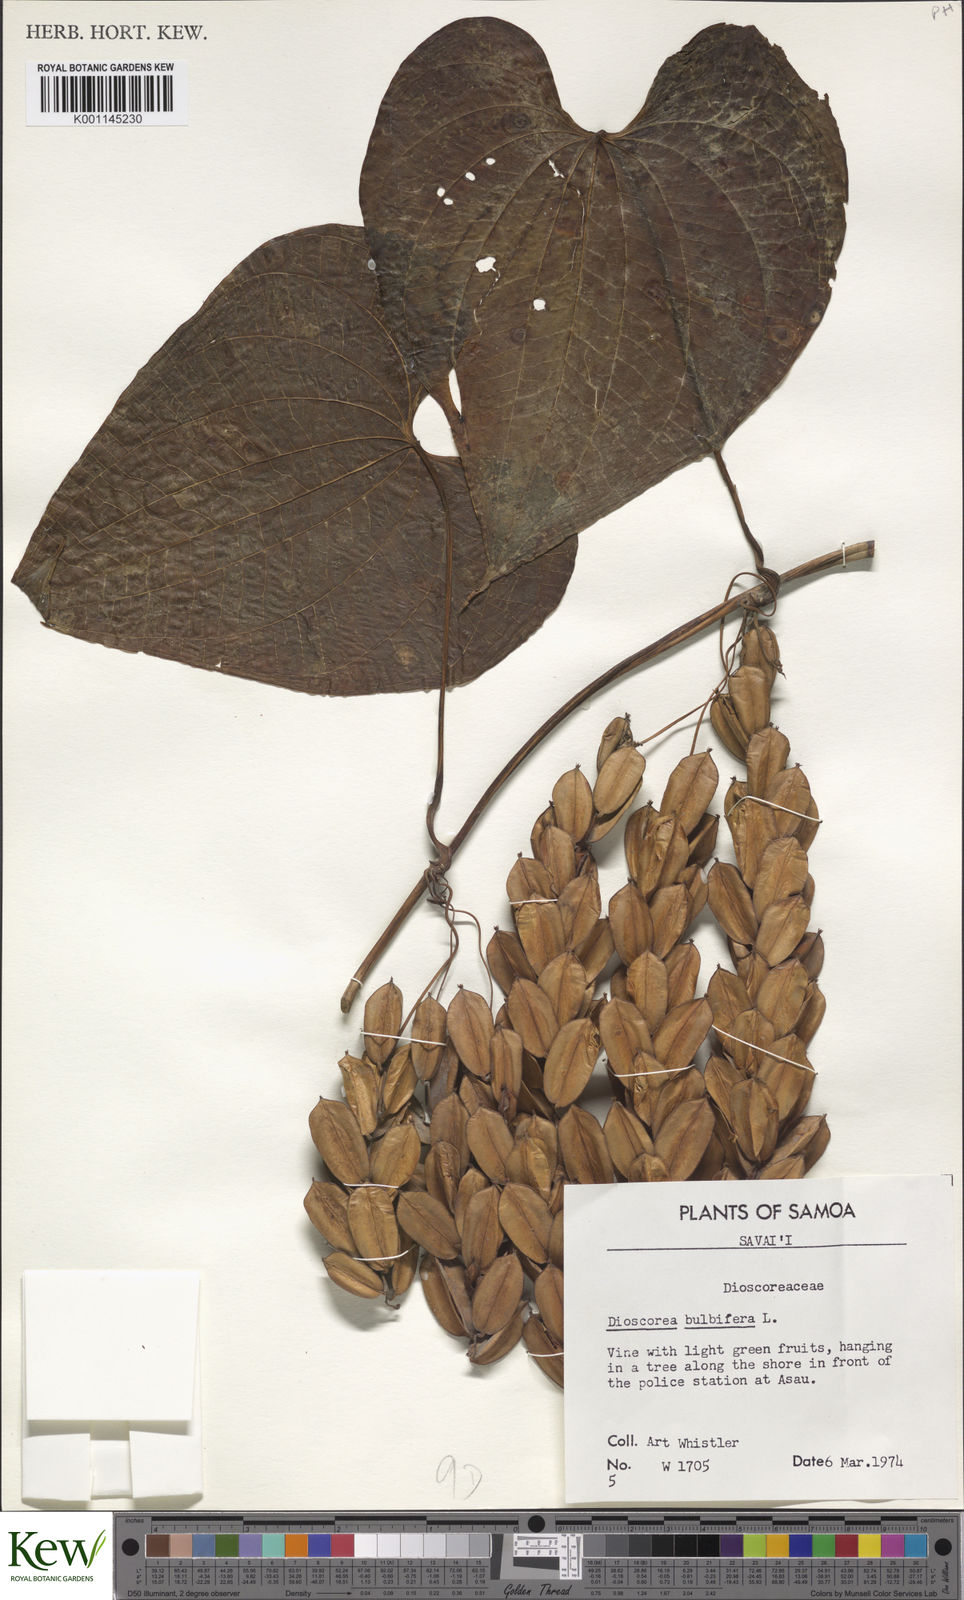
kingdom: Plantae
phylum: Tracheophyta
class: Liliopsida
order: Dioscoreales
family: Dioscoreaceae
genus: Dioscorea
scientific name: Dioscorea bulbifera
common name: Air yam
